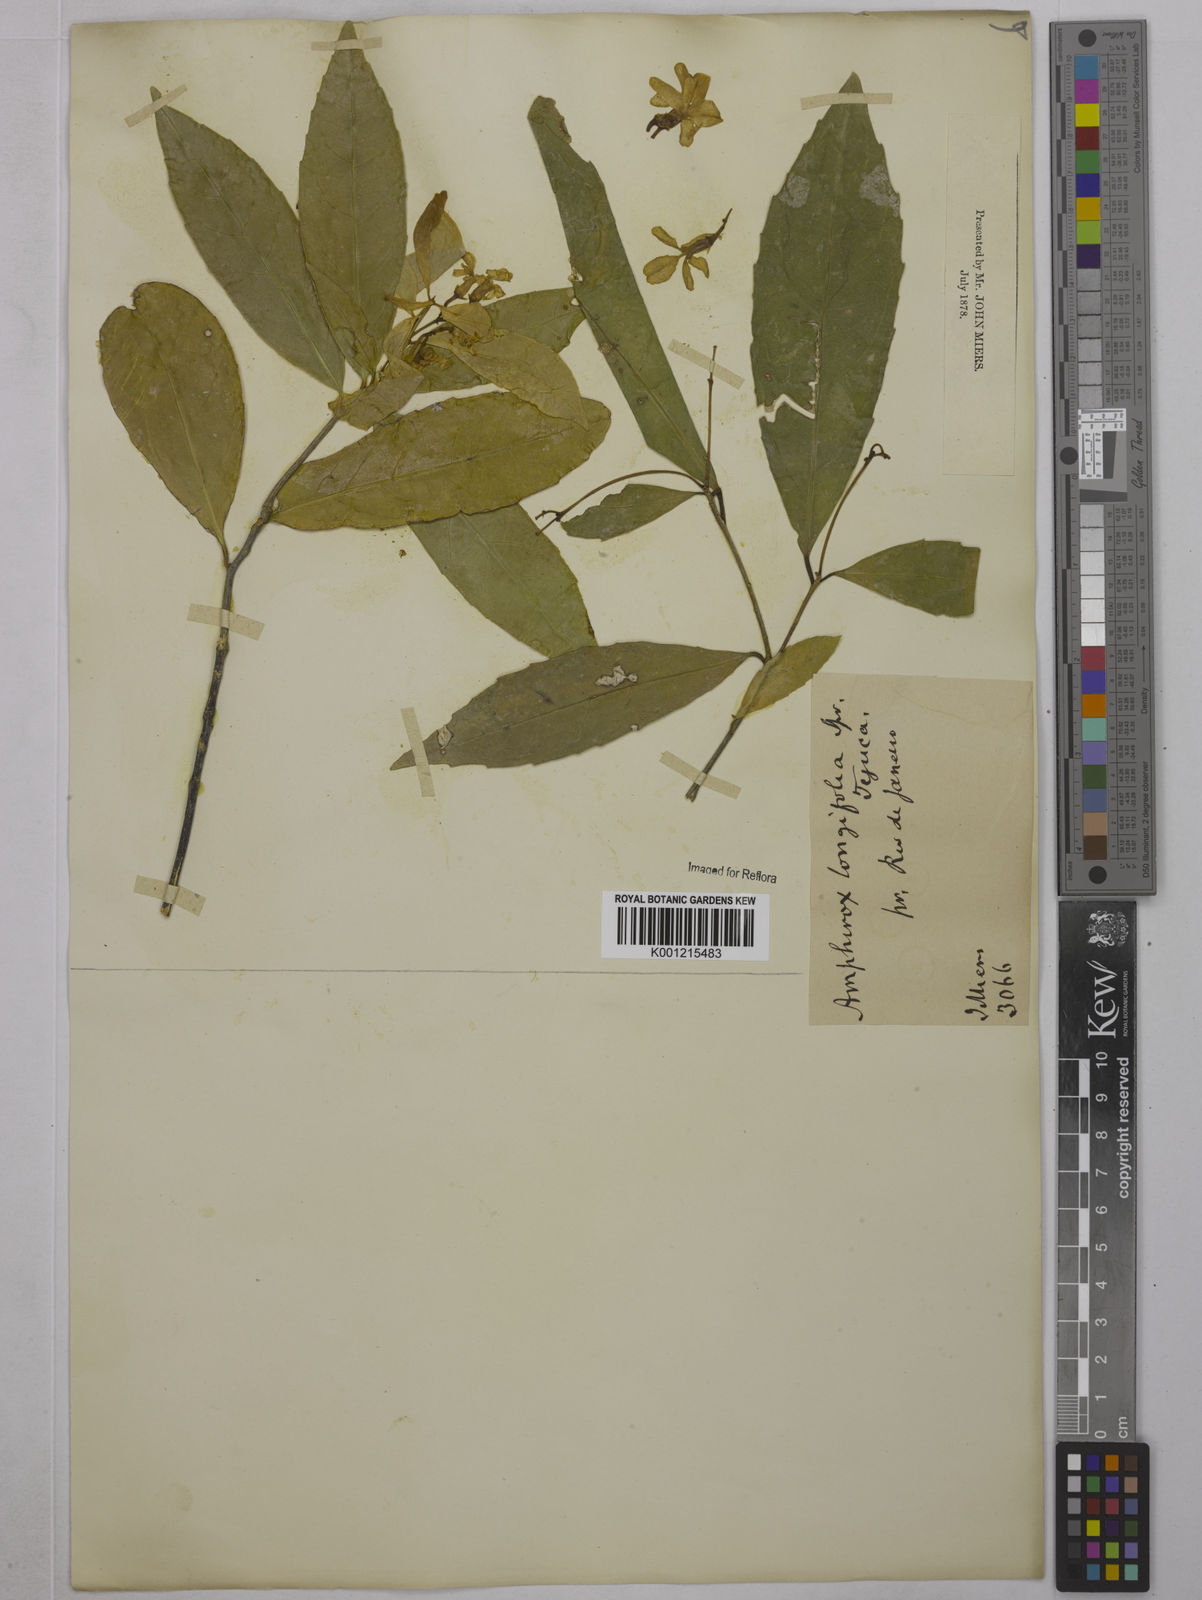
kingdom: Plantae
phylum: Tracheophyta
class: Magnoliopsida
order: Malpighiales
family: Violaceae
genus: Amphirrhox
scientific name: Amphirrhox longifolia
